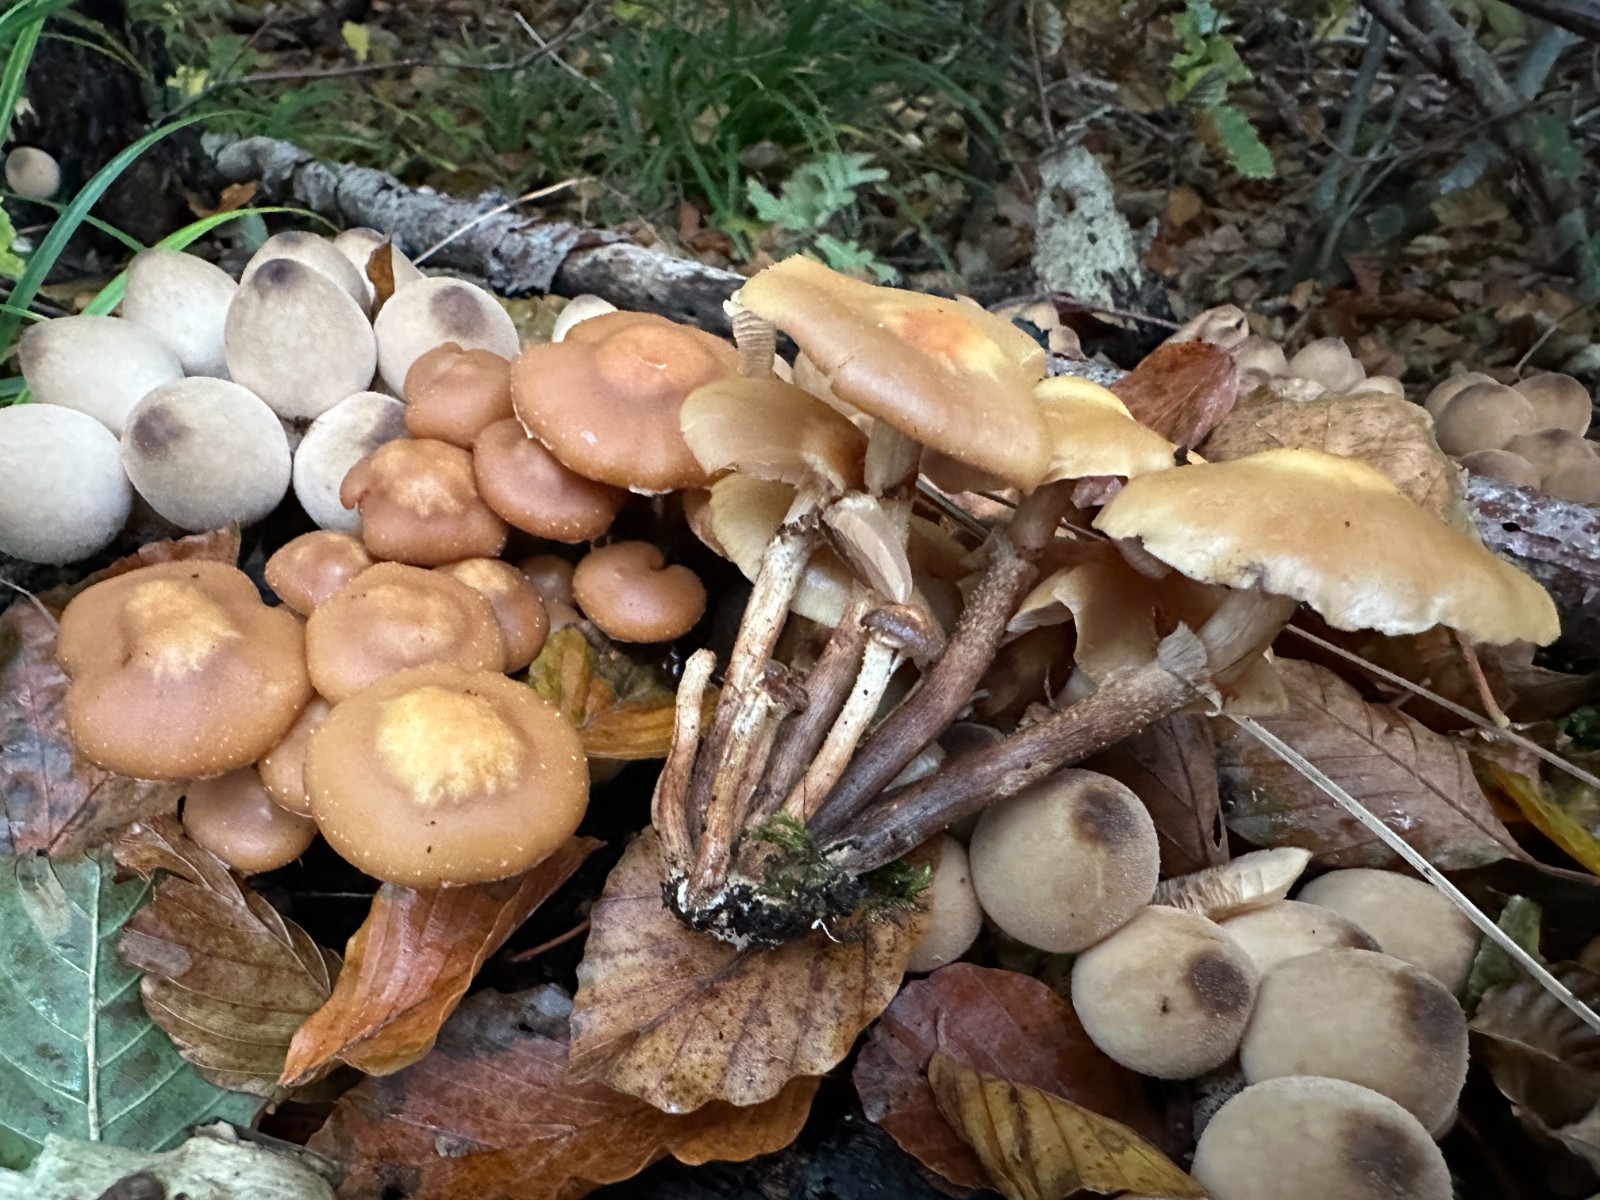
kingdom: Fungi
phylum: Basidiomycota
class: Agaricomycetes
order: Agaricales
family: Strophariaceae
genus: Kuehneromyces
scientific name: Kuehneromyces mutabilis
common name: foranderlig skælhat
